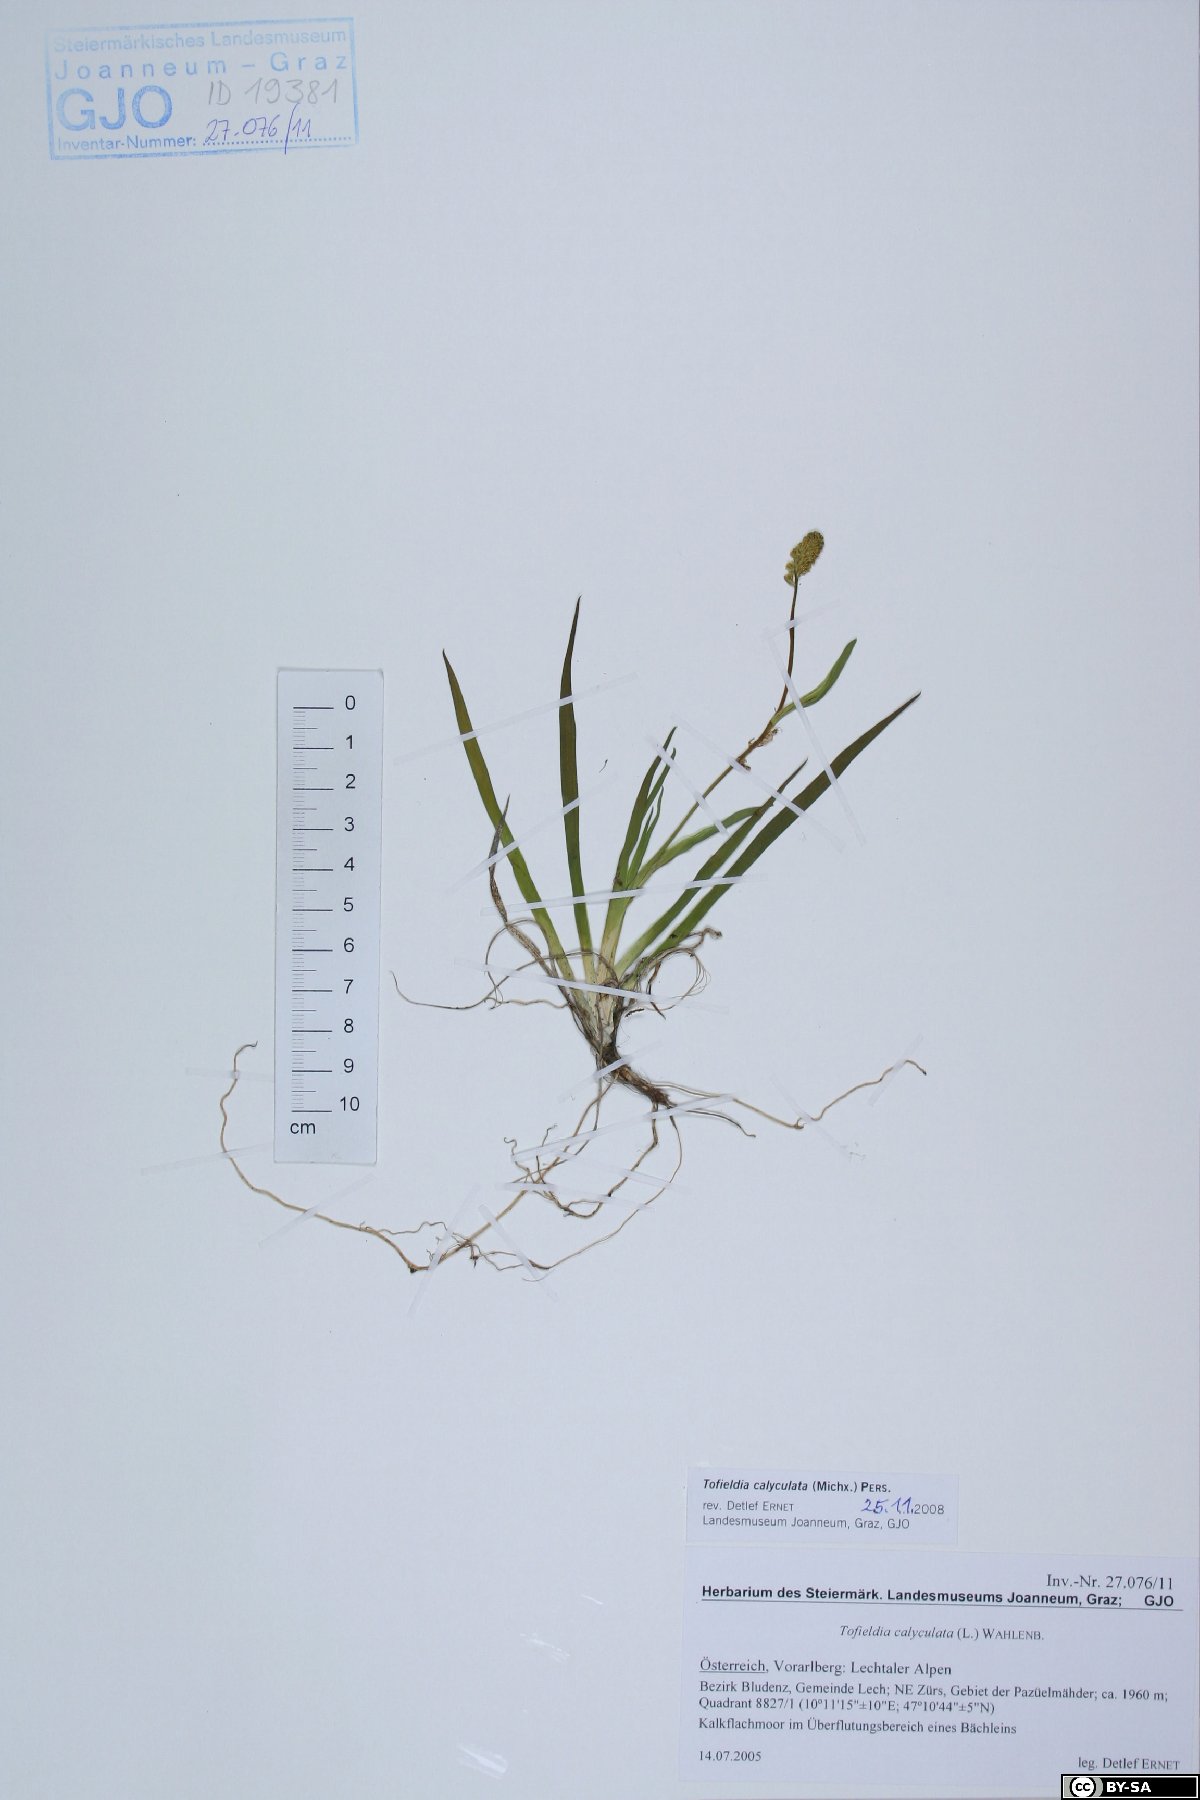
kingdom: Plantae
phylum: Tracheophyta
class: Liliopsida
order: Alismatales
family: Tofieldiaceae
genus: Tofieldia
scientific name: Tofieldia calyculata
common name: German-asphodel
